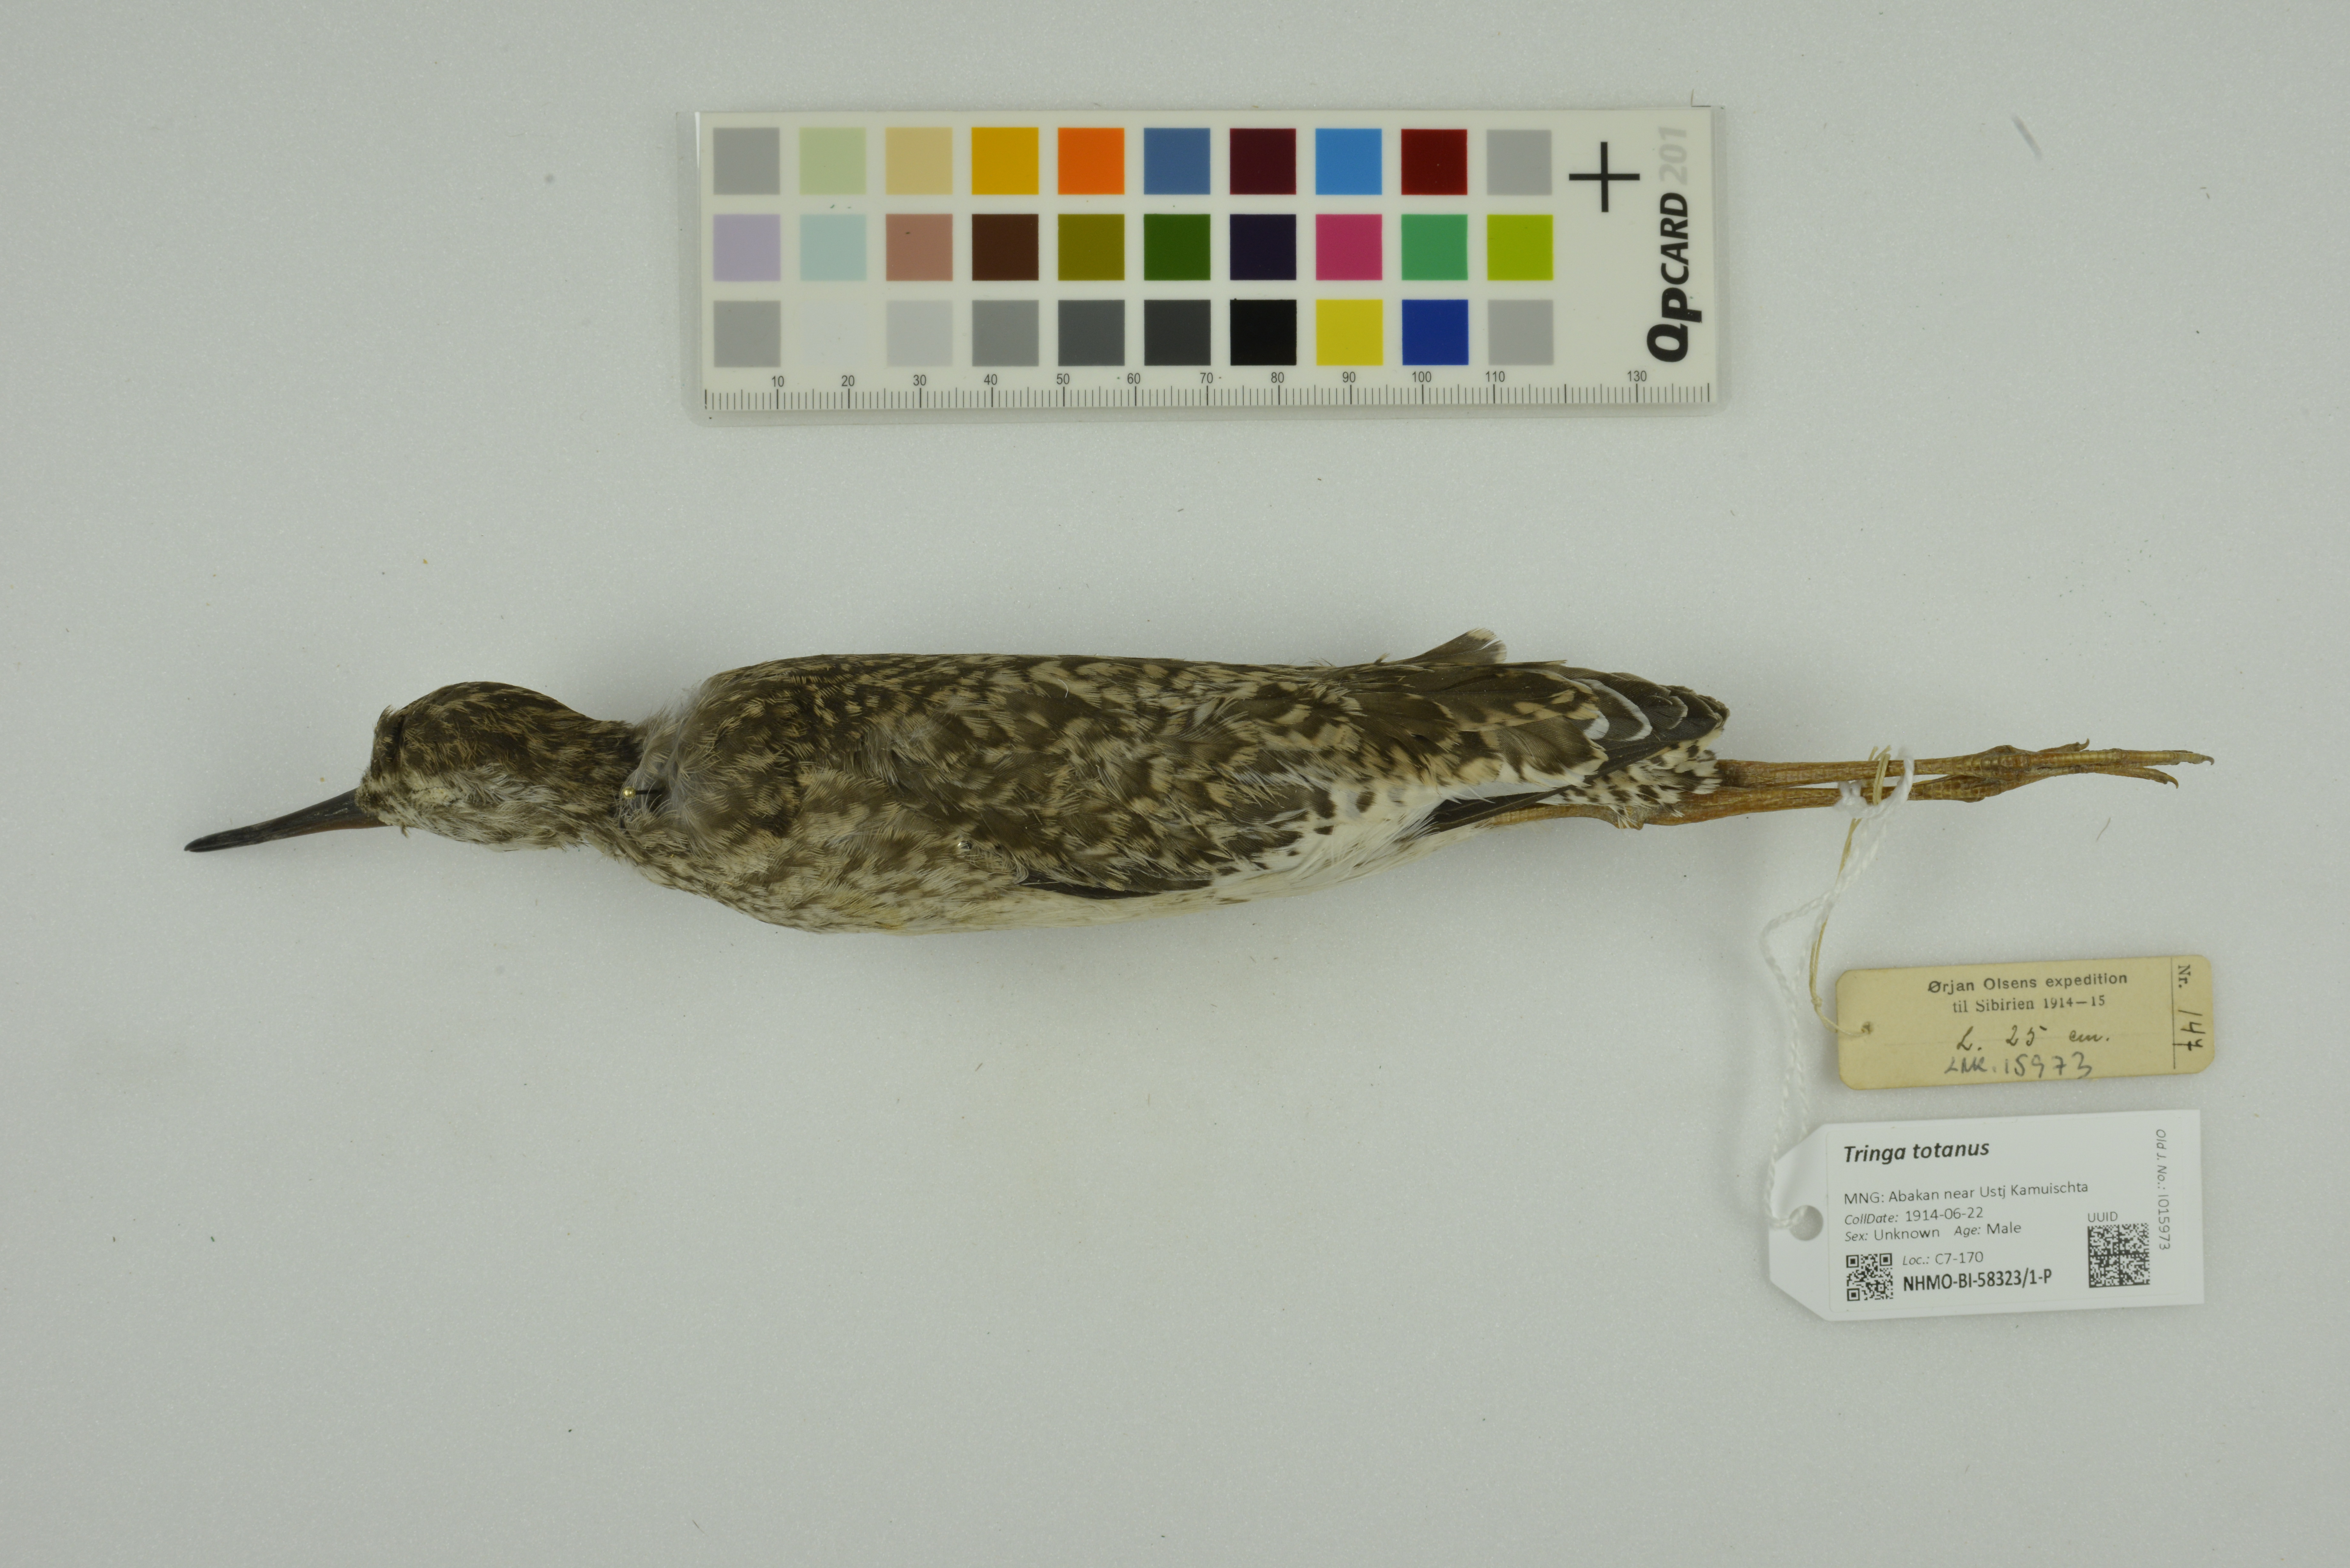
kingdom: Animalia
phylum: Chordata
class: Aves
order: Charadriiformes
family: Scolopacidae
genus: Tringa
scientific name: Tringa totanus
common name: Common redshank
